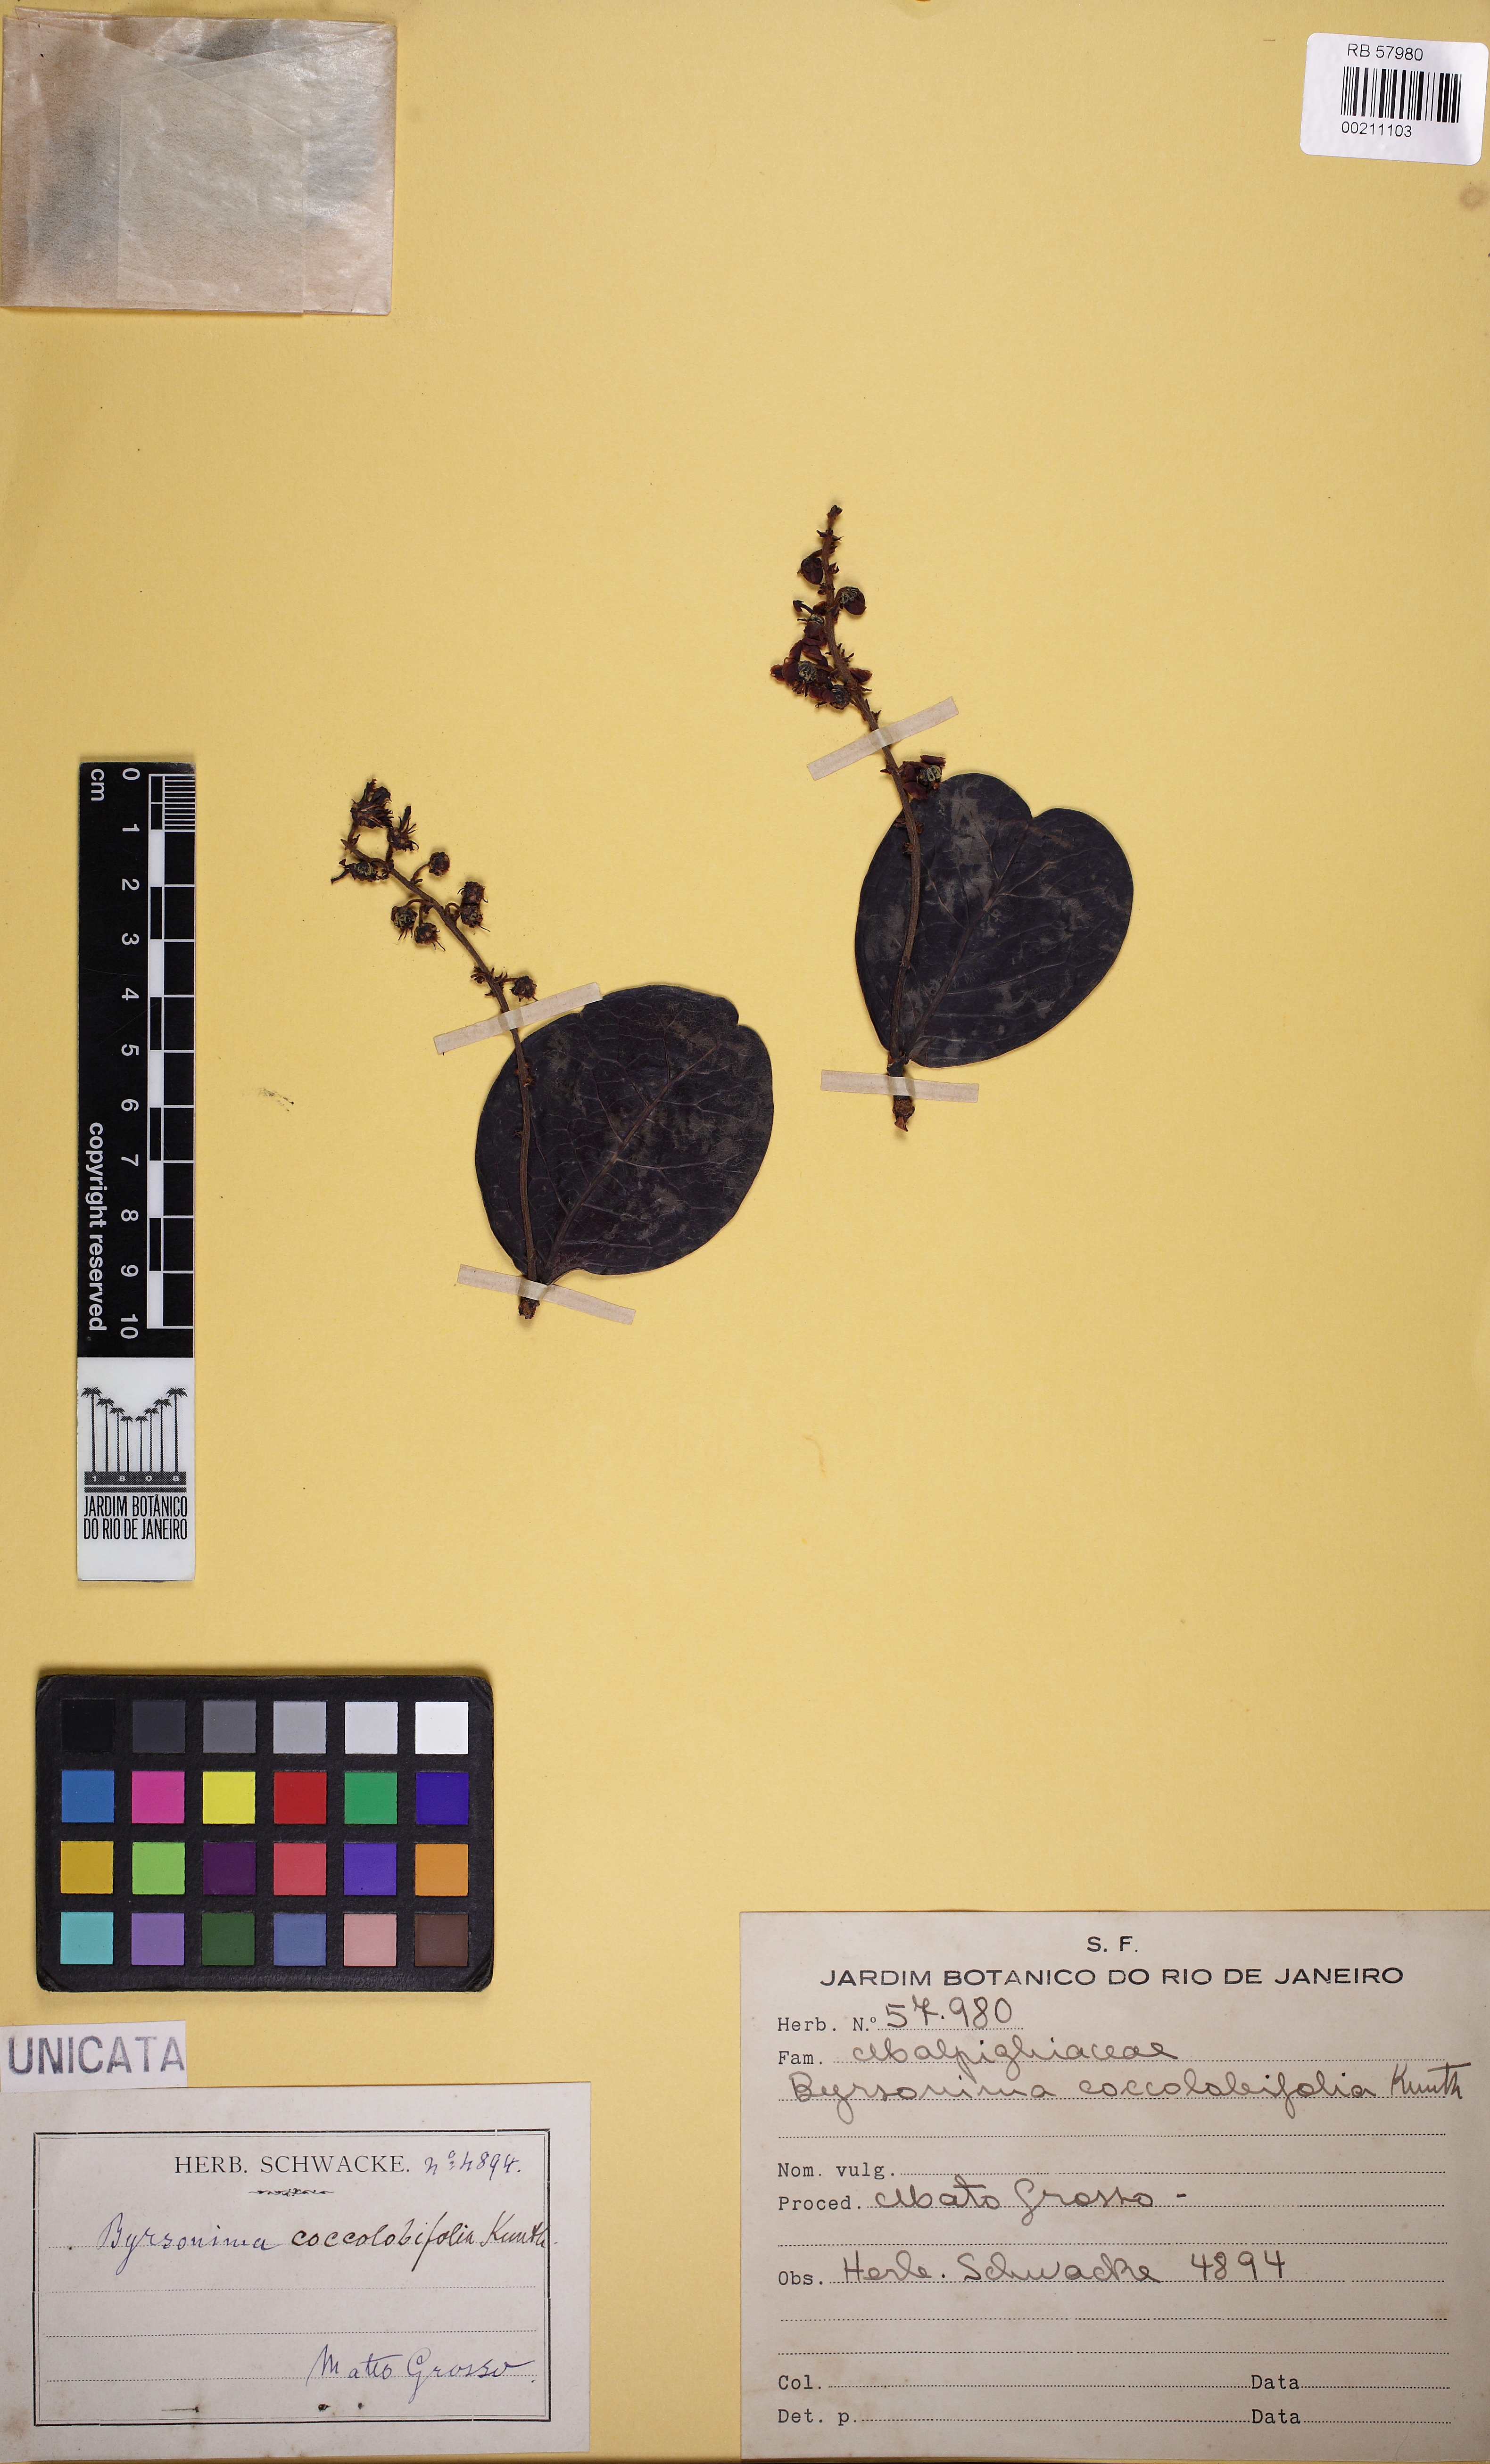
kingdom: Plantae
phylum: Tracheophyta
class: Magnoliopsida
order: Malpighiales
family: Malpighiaceae
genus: Byrsonima
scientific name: Byrsonima coccolobifolia
